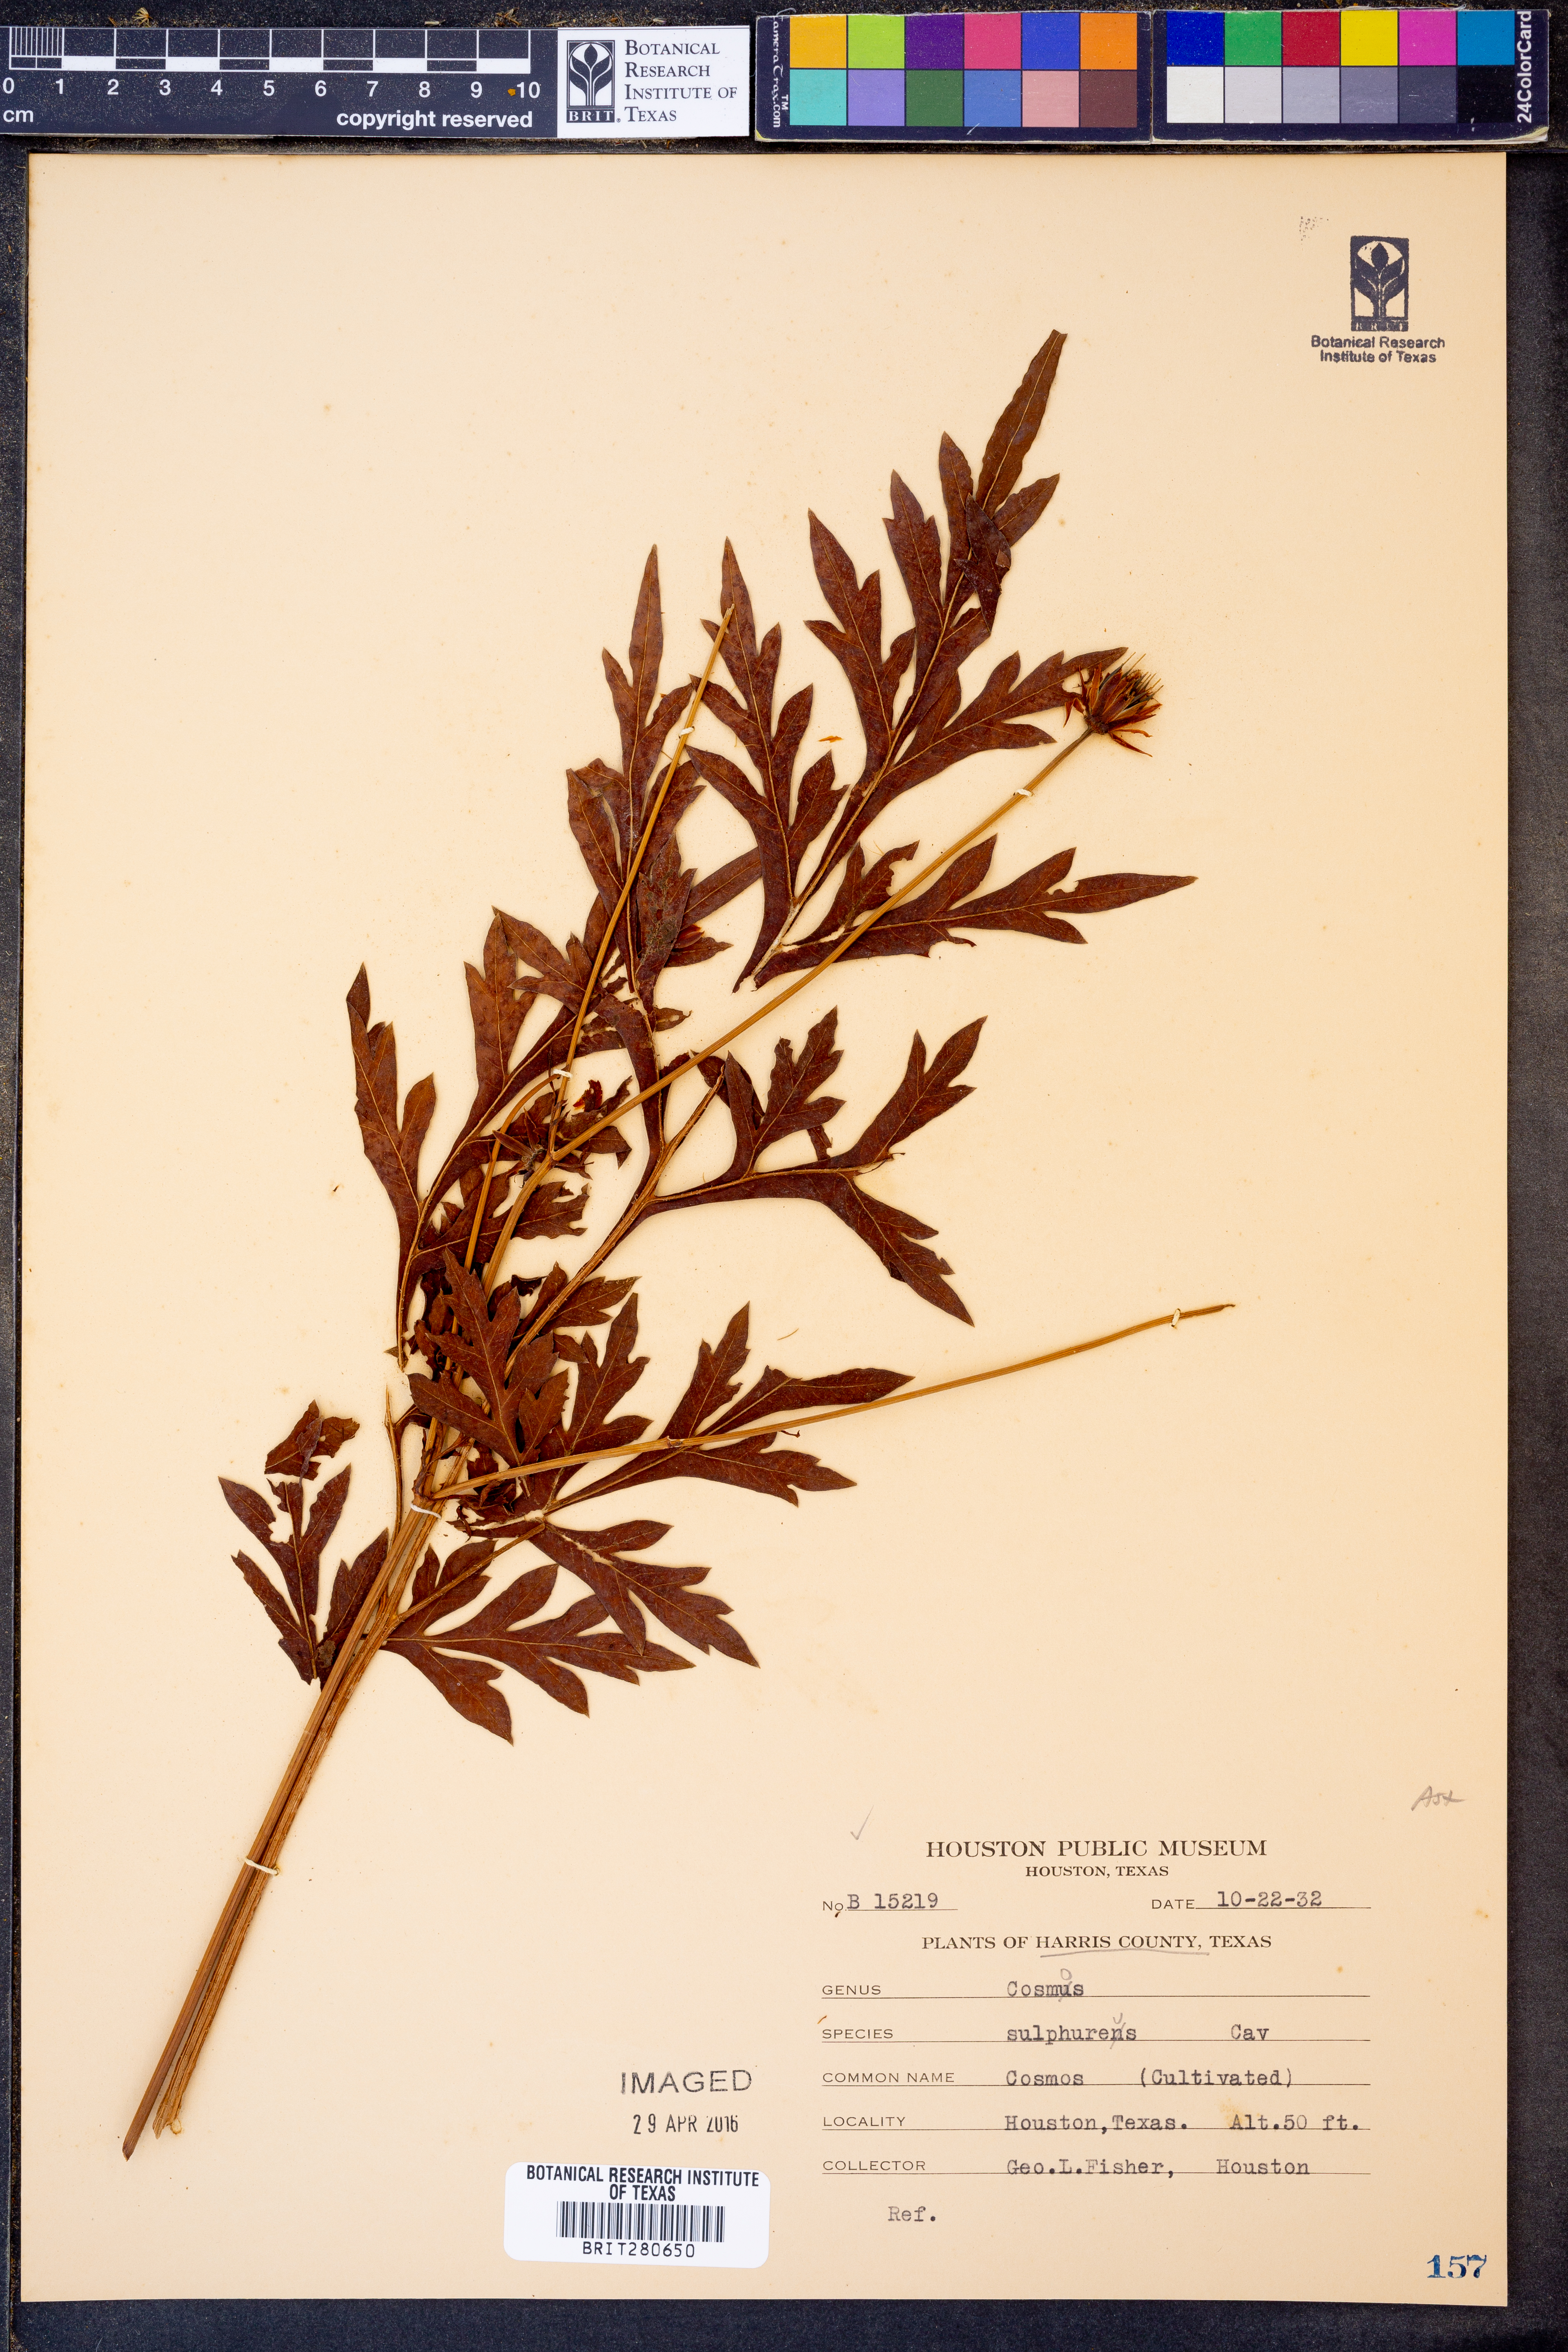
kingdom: Plantae
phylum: Tracheophyta
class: Magnoliopsida
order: Asterales
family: Asteraceae
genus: Cosmos
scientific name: Cosmos sulphureus
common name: Sulphur cosmos
